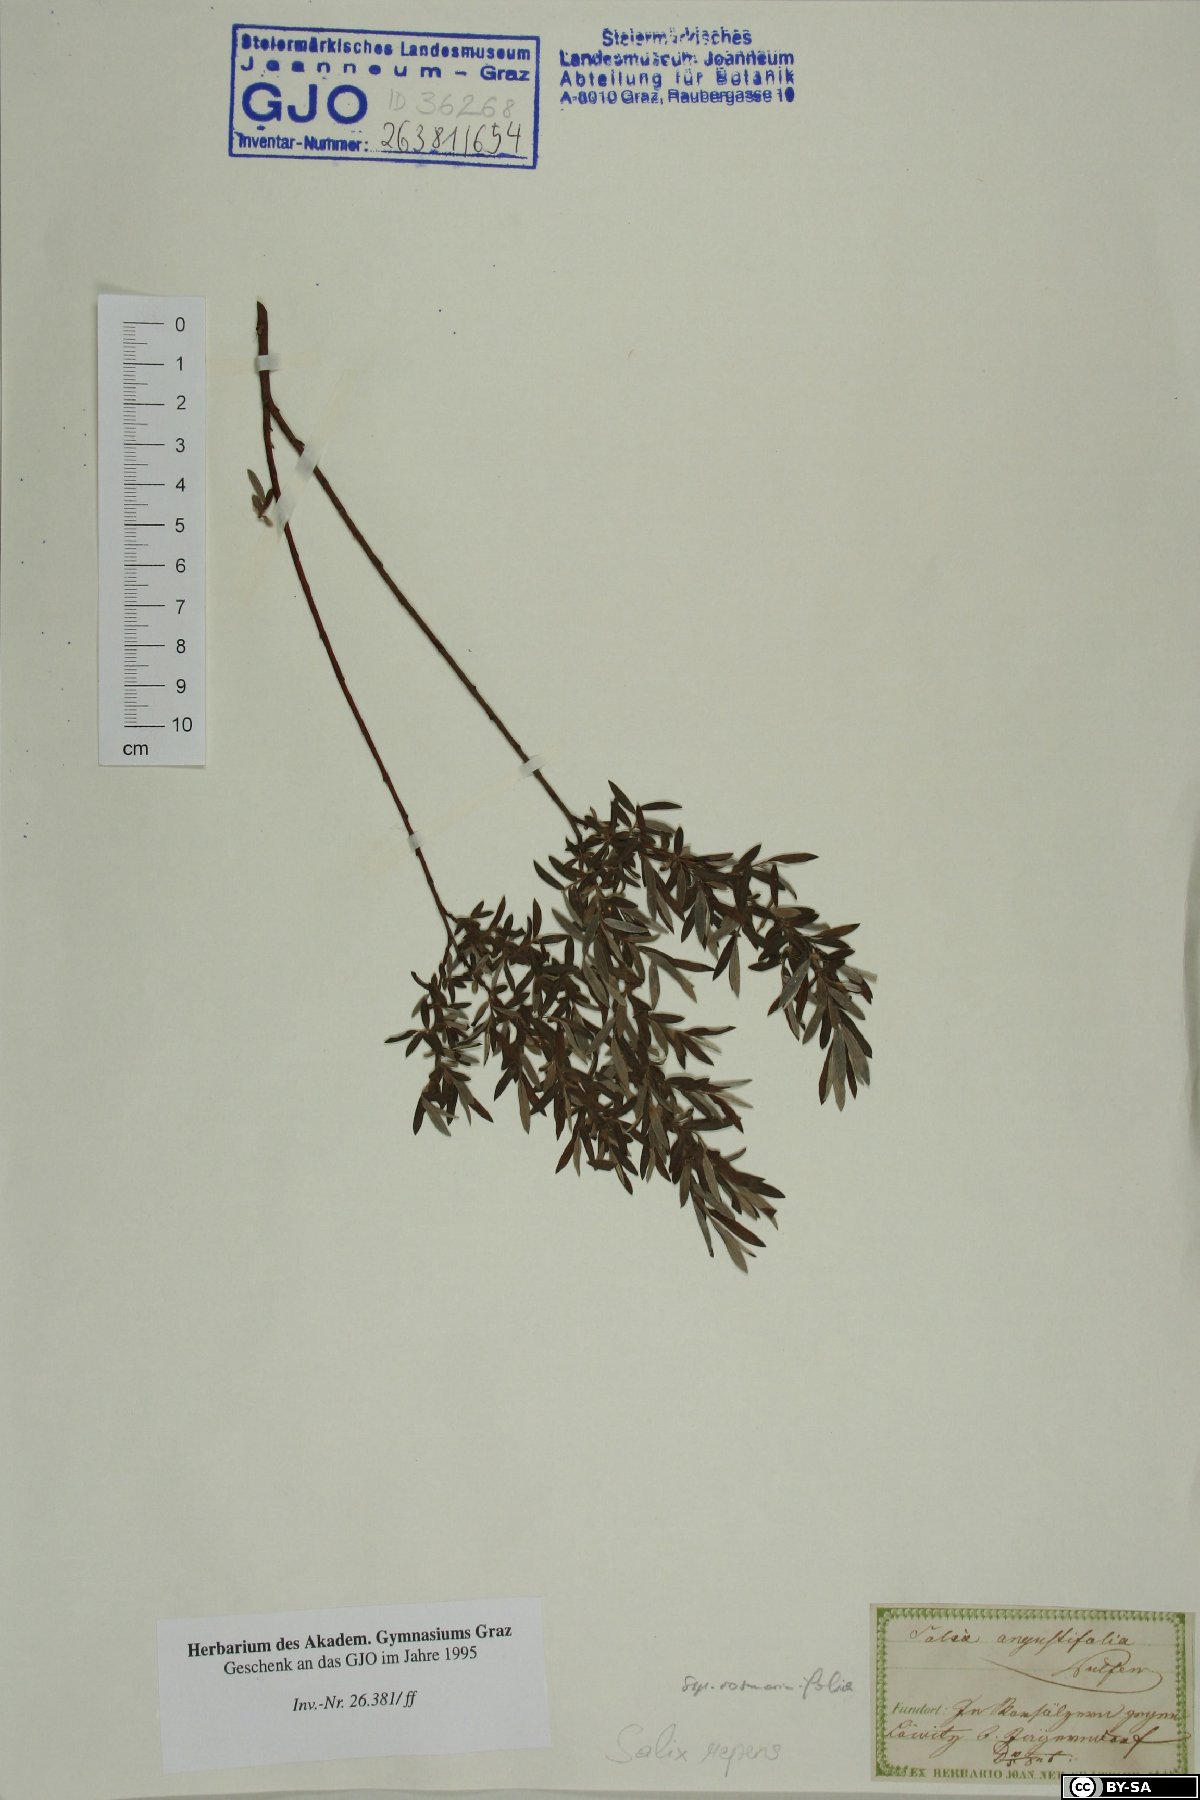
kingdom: Plantae
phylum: Tracheophyta
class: Magnoliopsida
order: Malpighiales
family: Salicaceae
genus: Salix
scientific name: Salix rosmarinifolia
